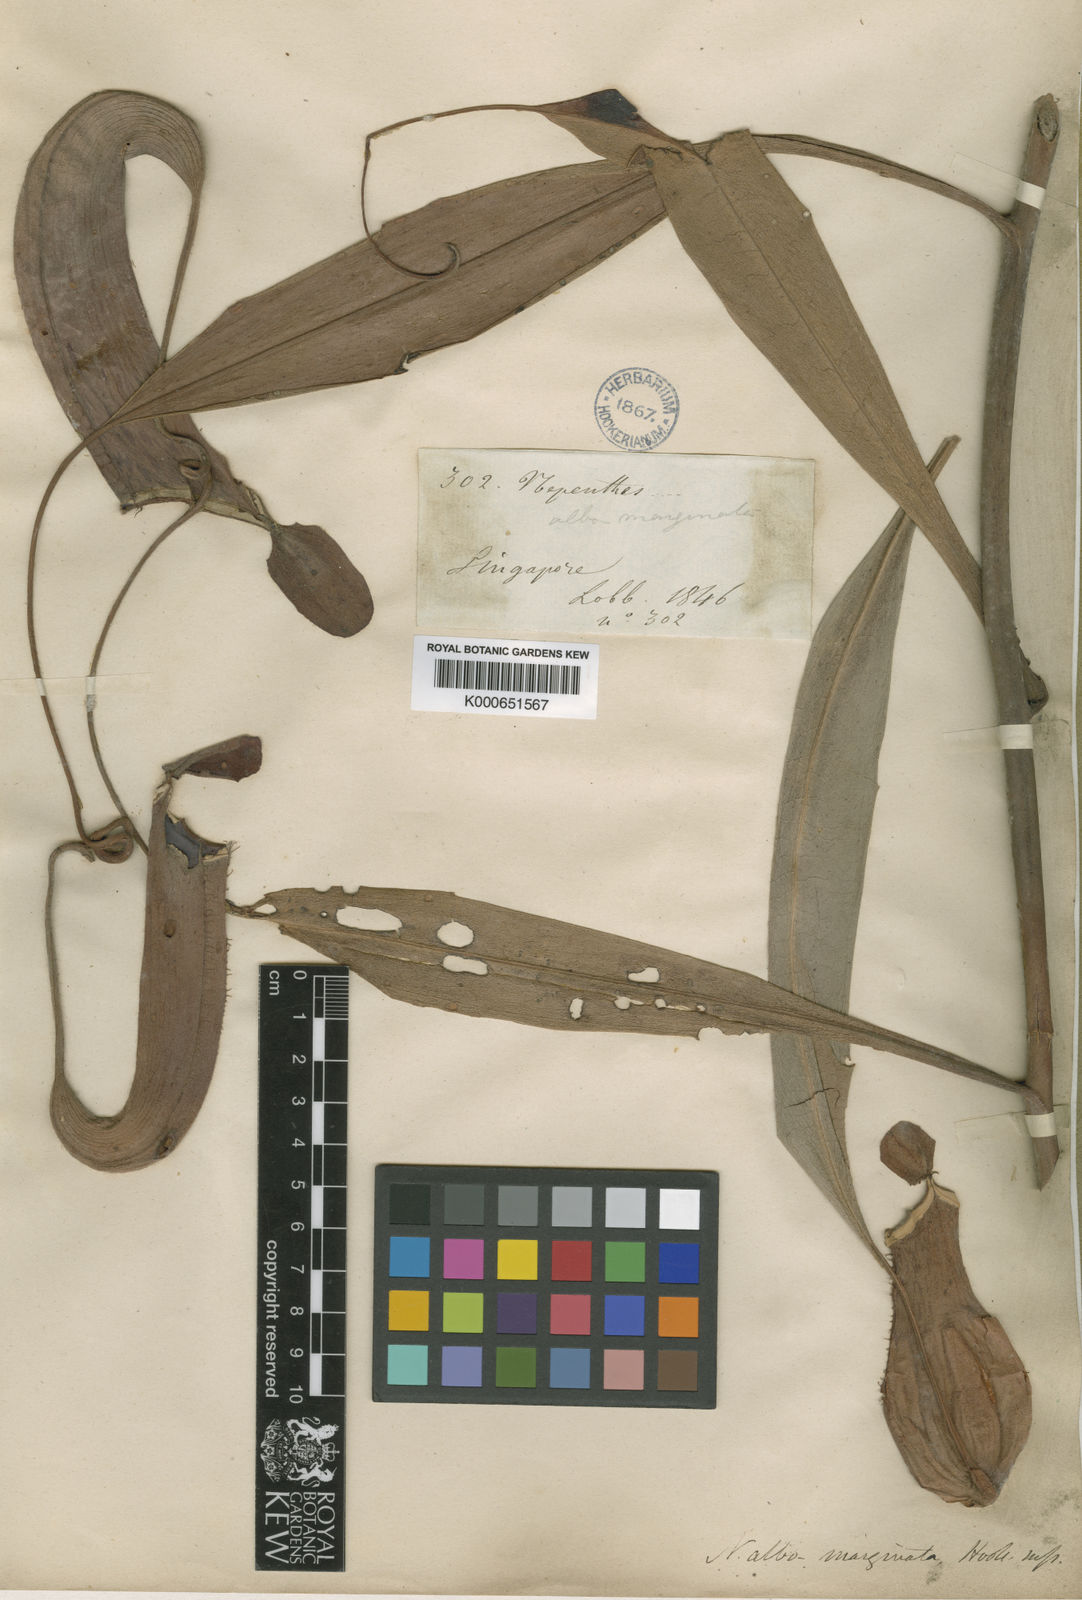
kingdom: Plantae
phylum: Tracheophyta
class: Magnoliopsida
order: Caryophyllales
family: Nepenthaceae
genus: Nepenthes
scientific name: Nepenthes
